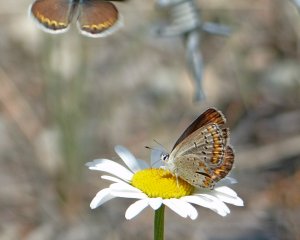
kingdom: Animalia
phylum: Arthropoda
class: Insecta
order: Lepidoptera
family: Lycaenidae
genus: Lycaeides
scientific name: Lycaeides melissa
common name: Melissa Blue
